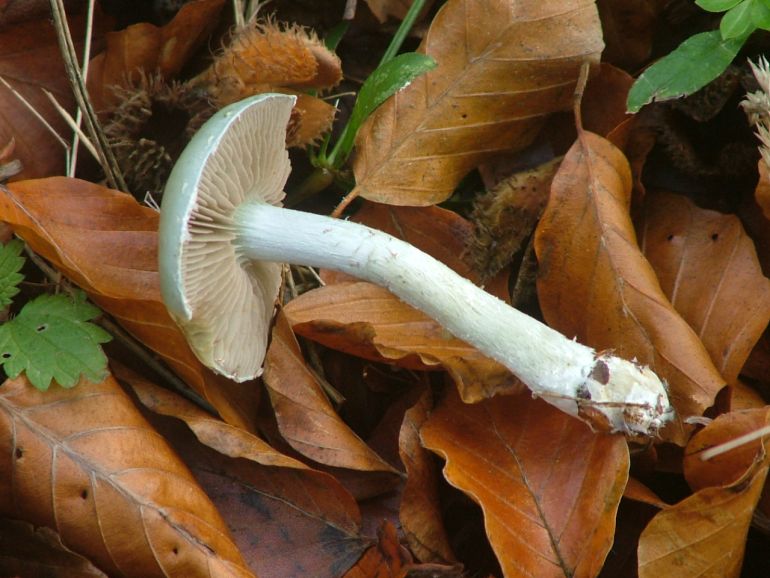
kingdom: Fungi
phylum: Basidiomycota
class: Agaricomycetes
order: Agaricales
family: Strophariaceae
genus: Stropharia
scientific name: Stropharia cyanea
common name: blågrøn bredblad
